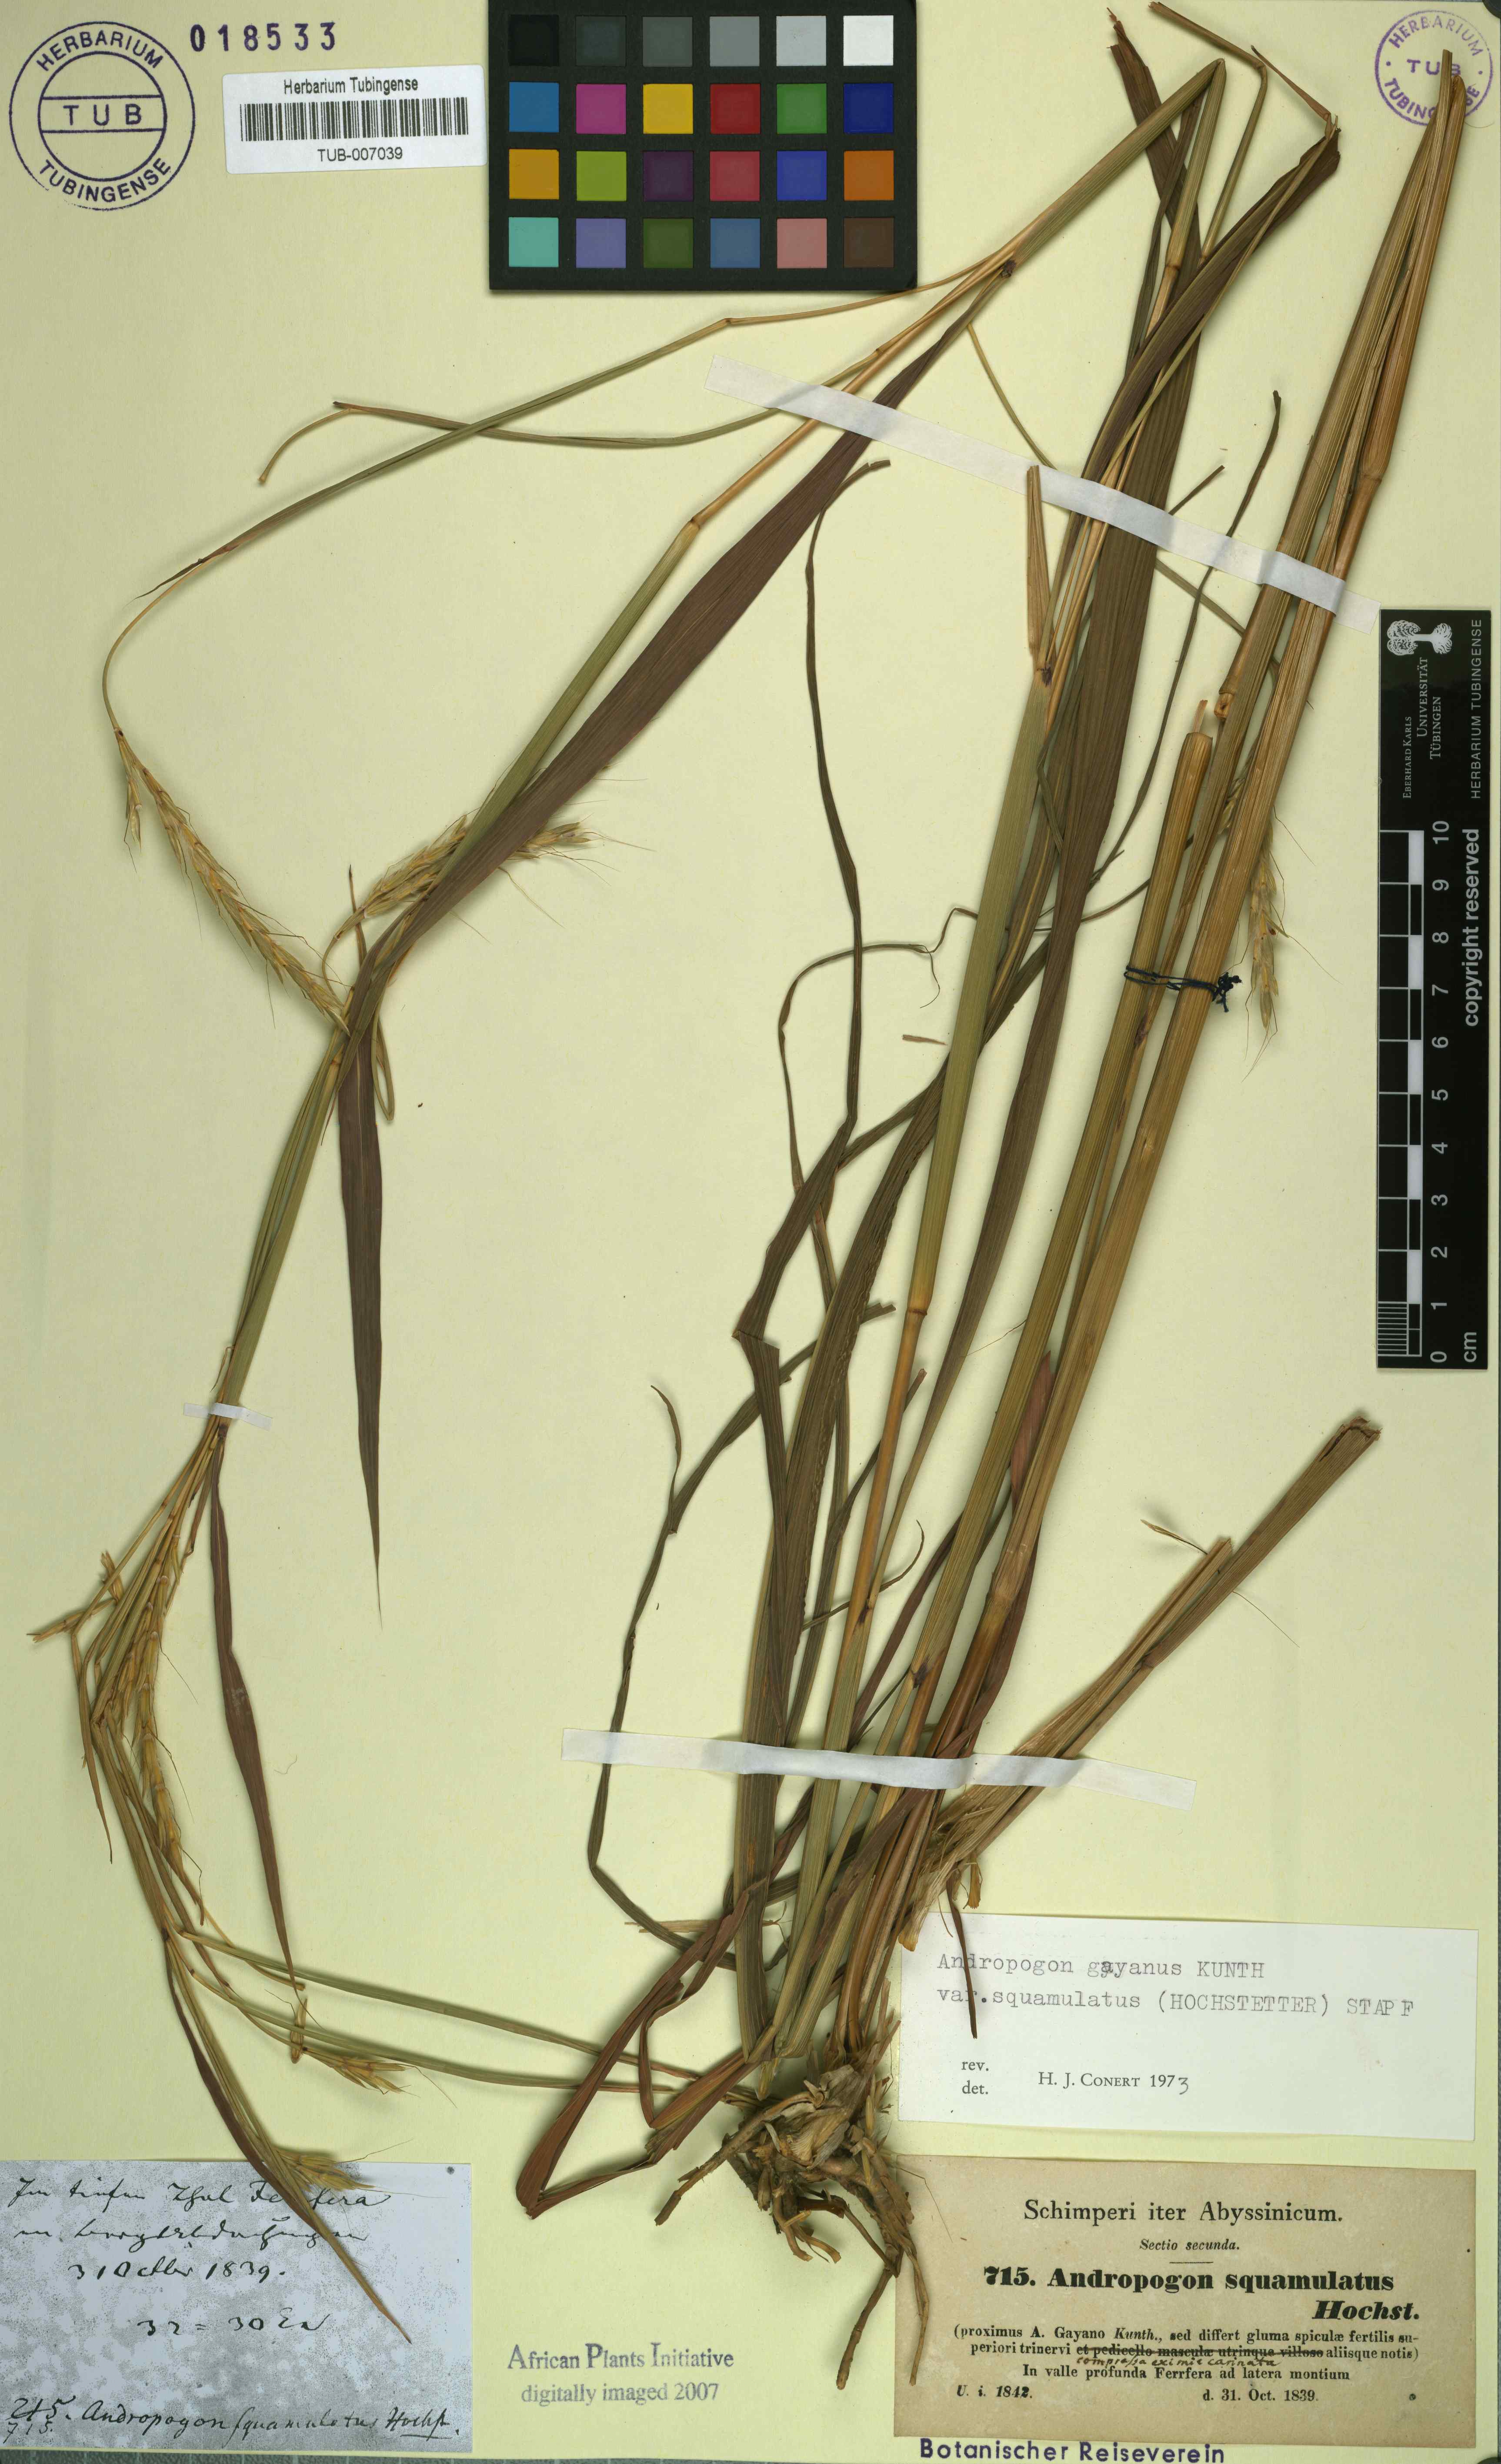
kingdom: Plantae
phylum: Tracheophyta
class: Liliopsida
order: Poales
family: Poaceae
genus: Andropogon
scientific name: Andropogon gayanus
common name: Tambuki grass
